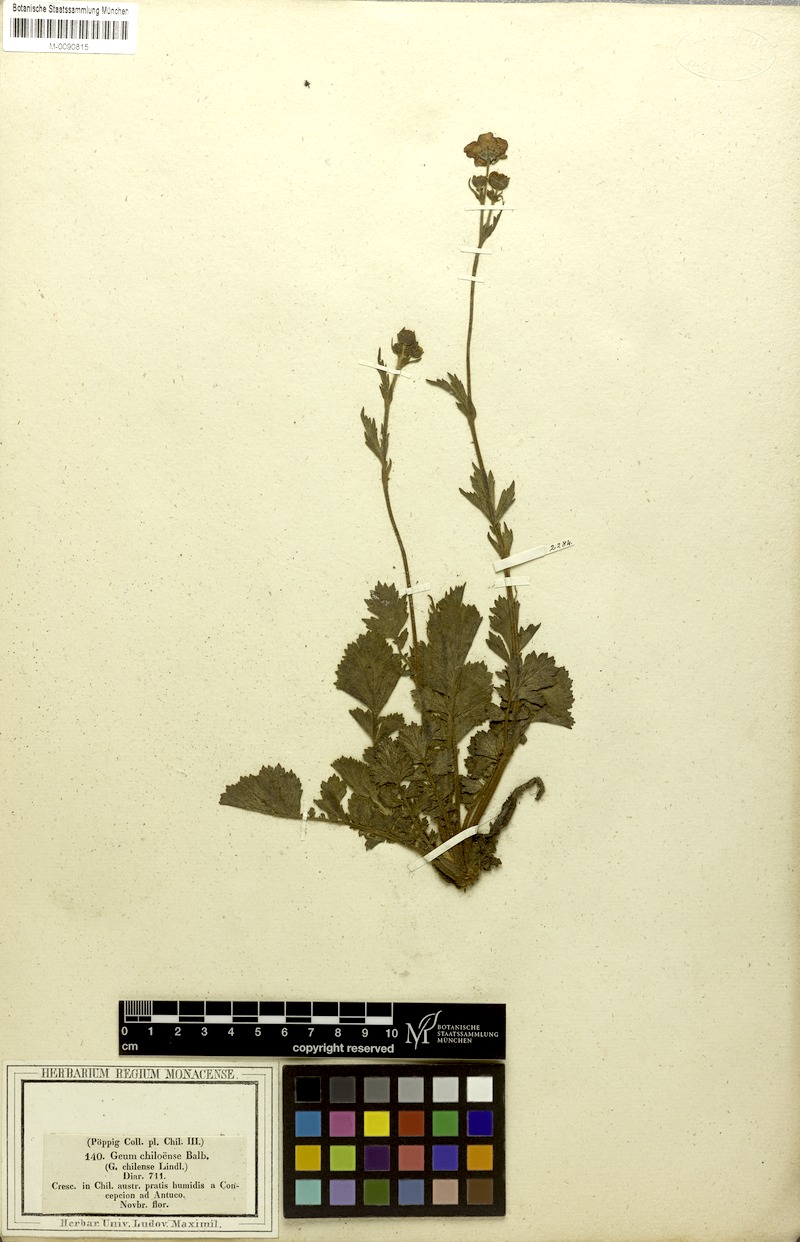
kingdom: Plantae
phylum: Tracheophyta
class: Magnoliopsida
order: Rosales
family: Rosaceae
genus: Geum
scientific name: Geum quellyon
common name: Scarlet avens
